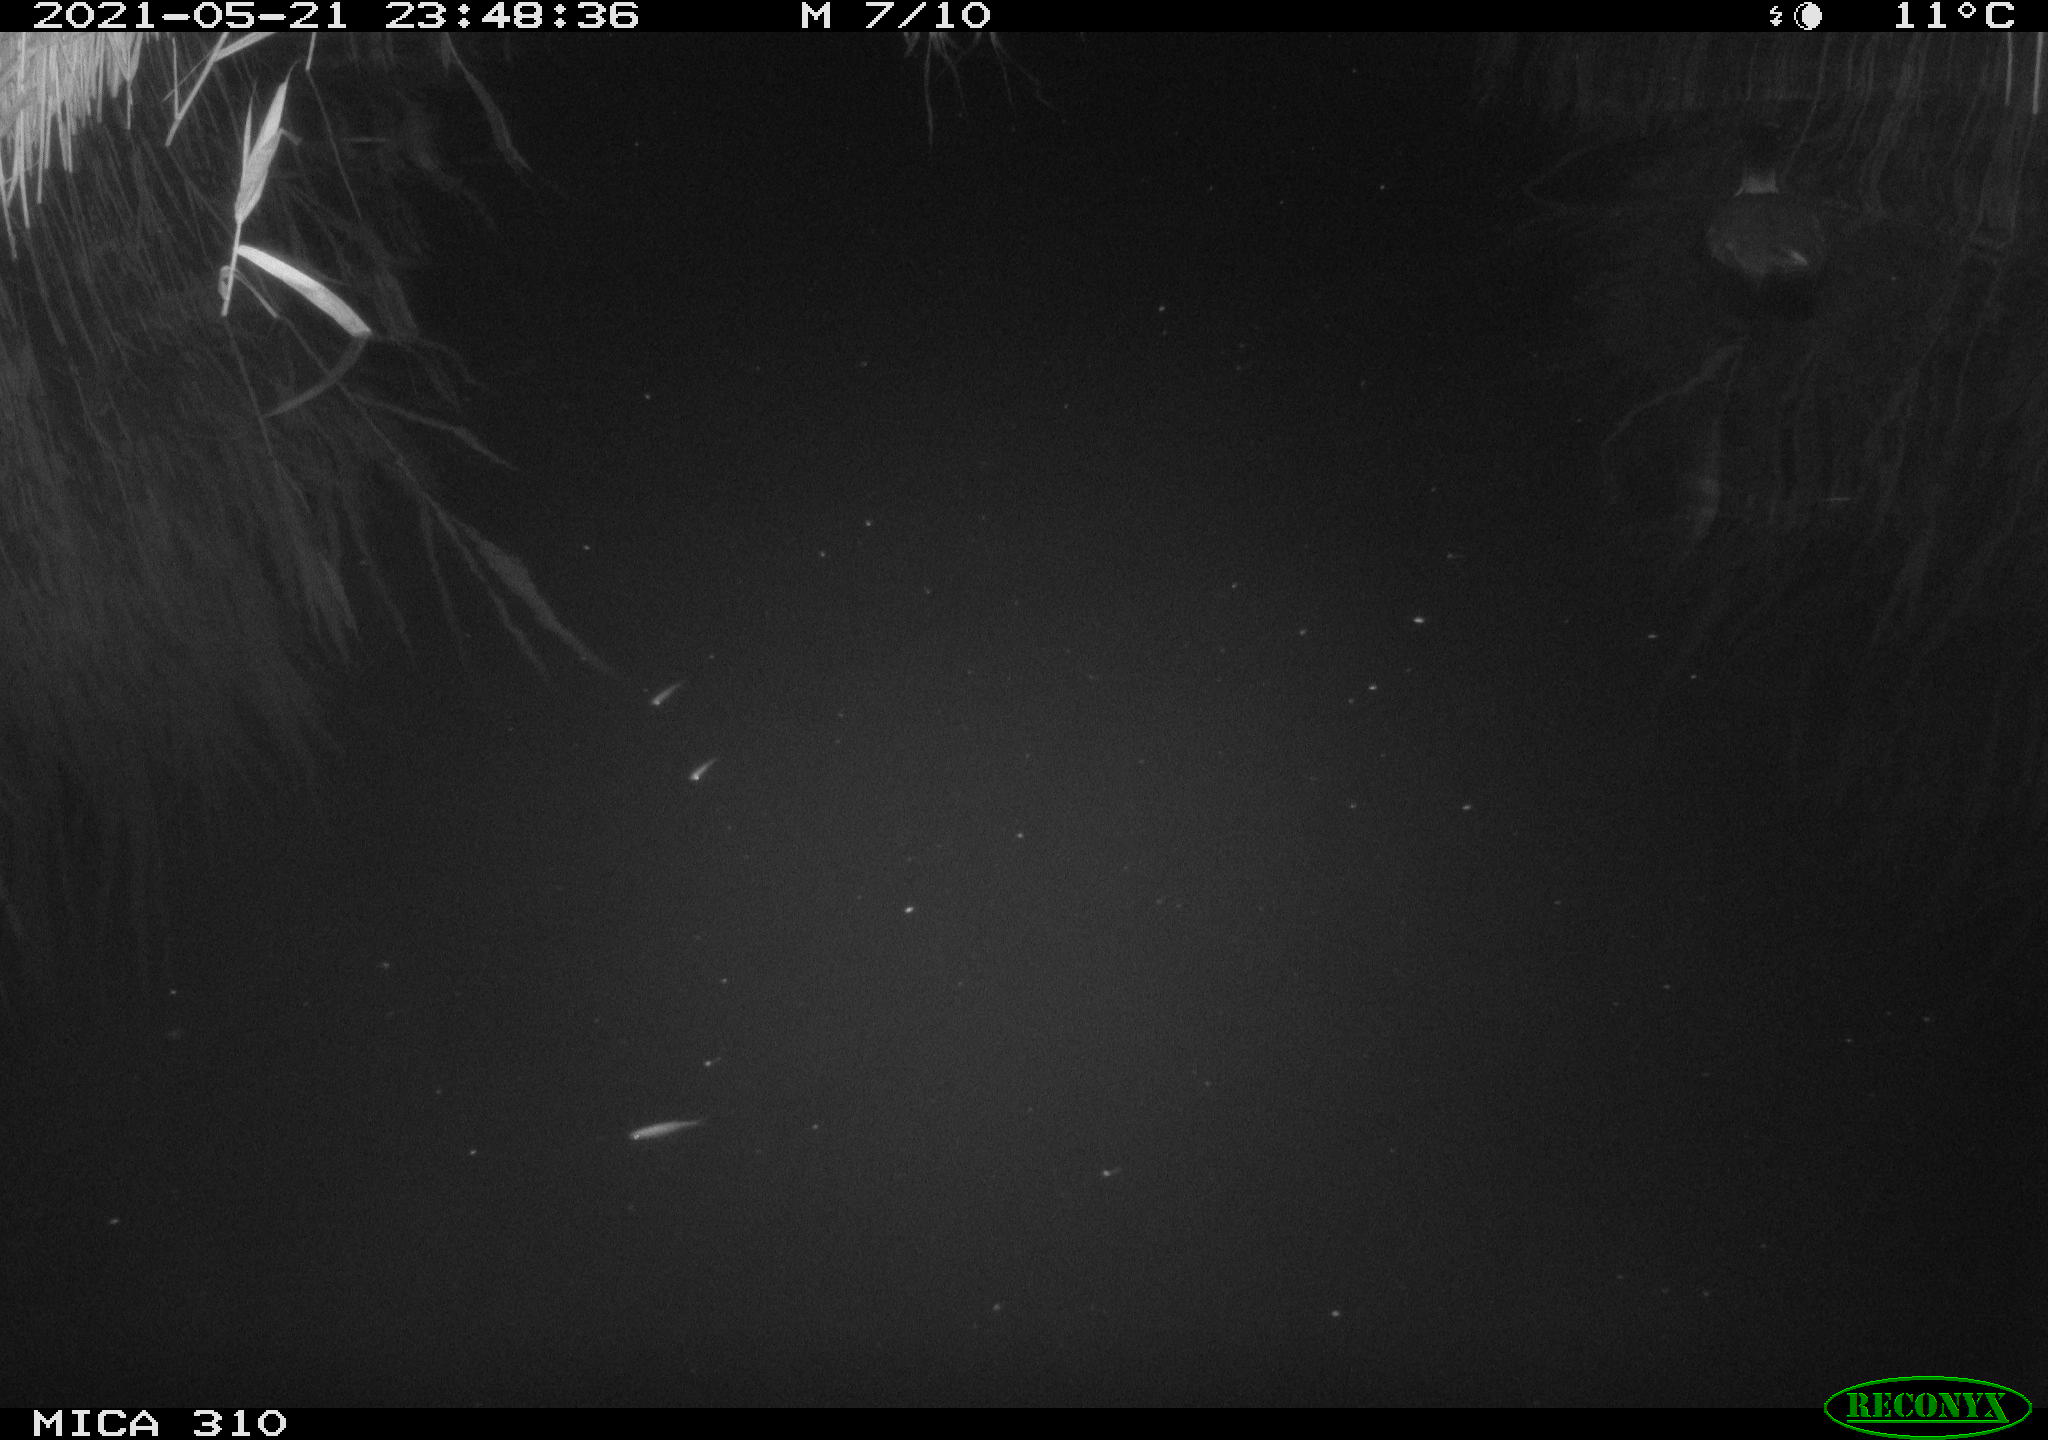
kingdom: Animalia
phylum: Chordata
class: Aves
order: Gruiformes
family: Rallidae
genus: Fulica
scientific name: Fulica atra
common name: Eurasian coot
